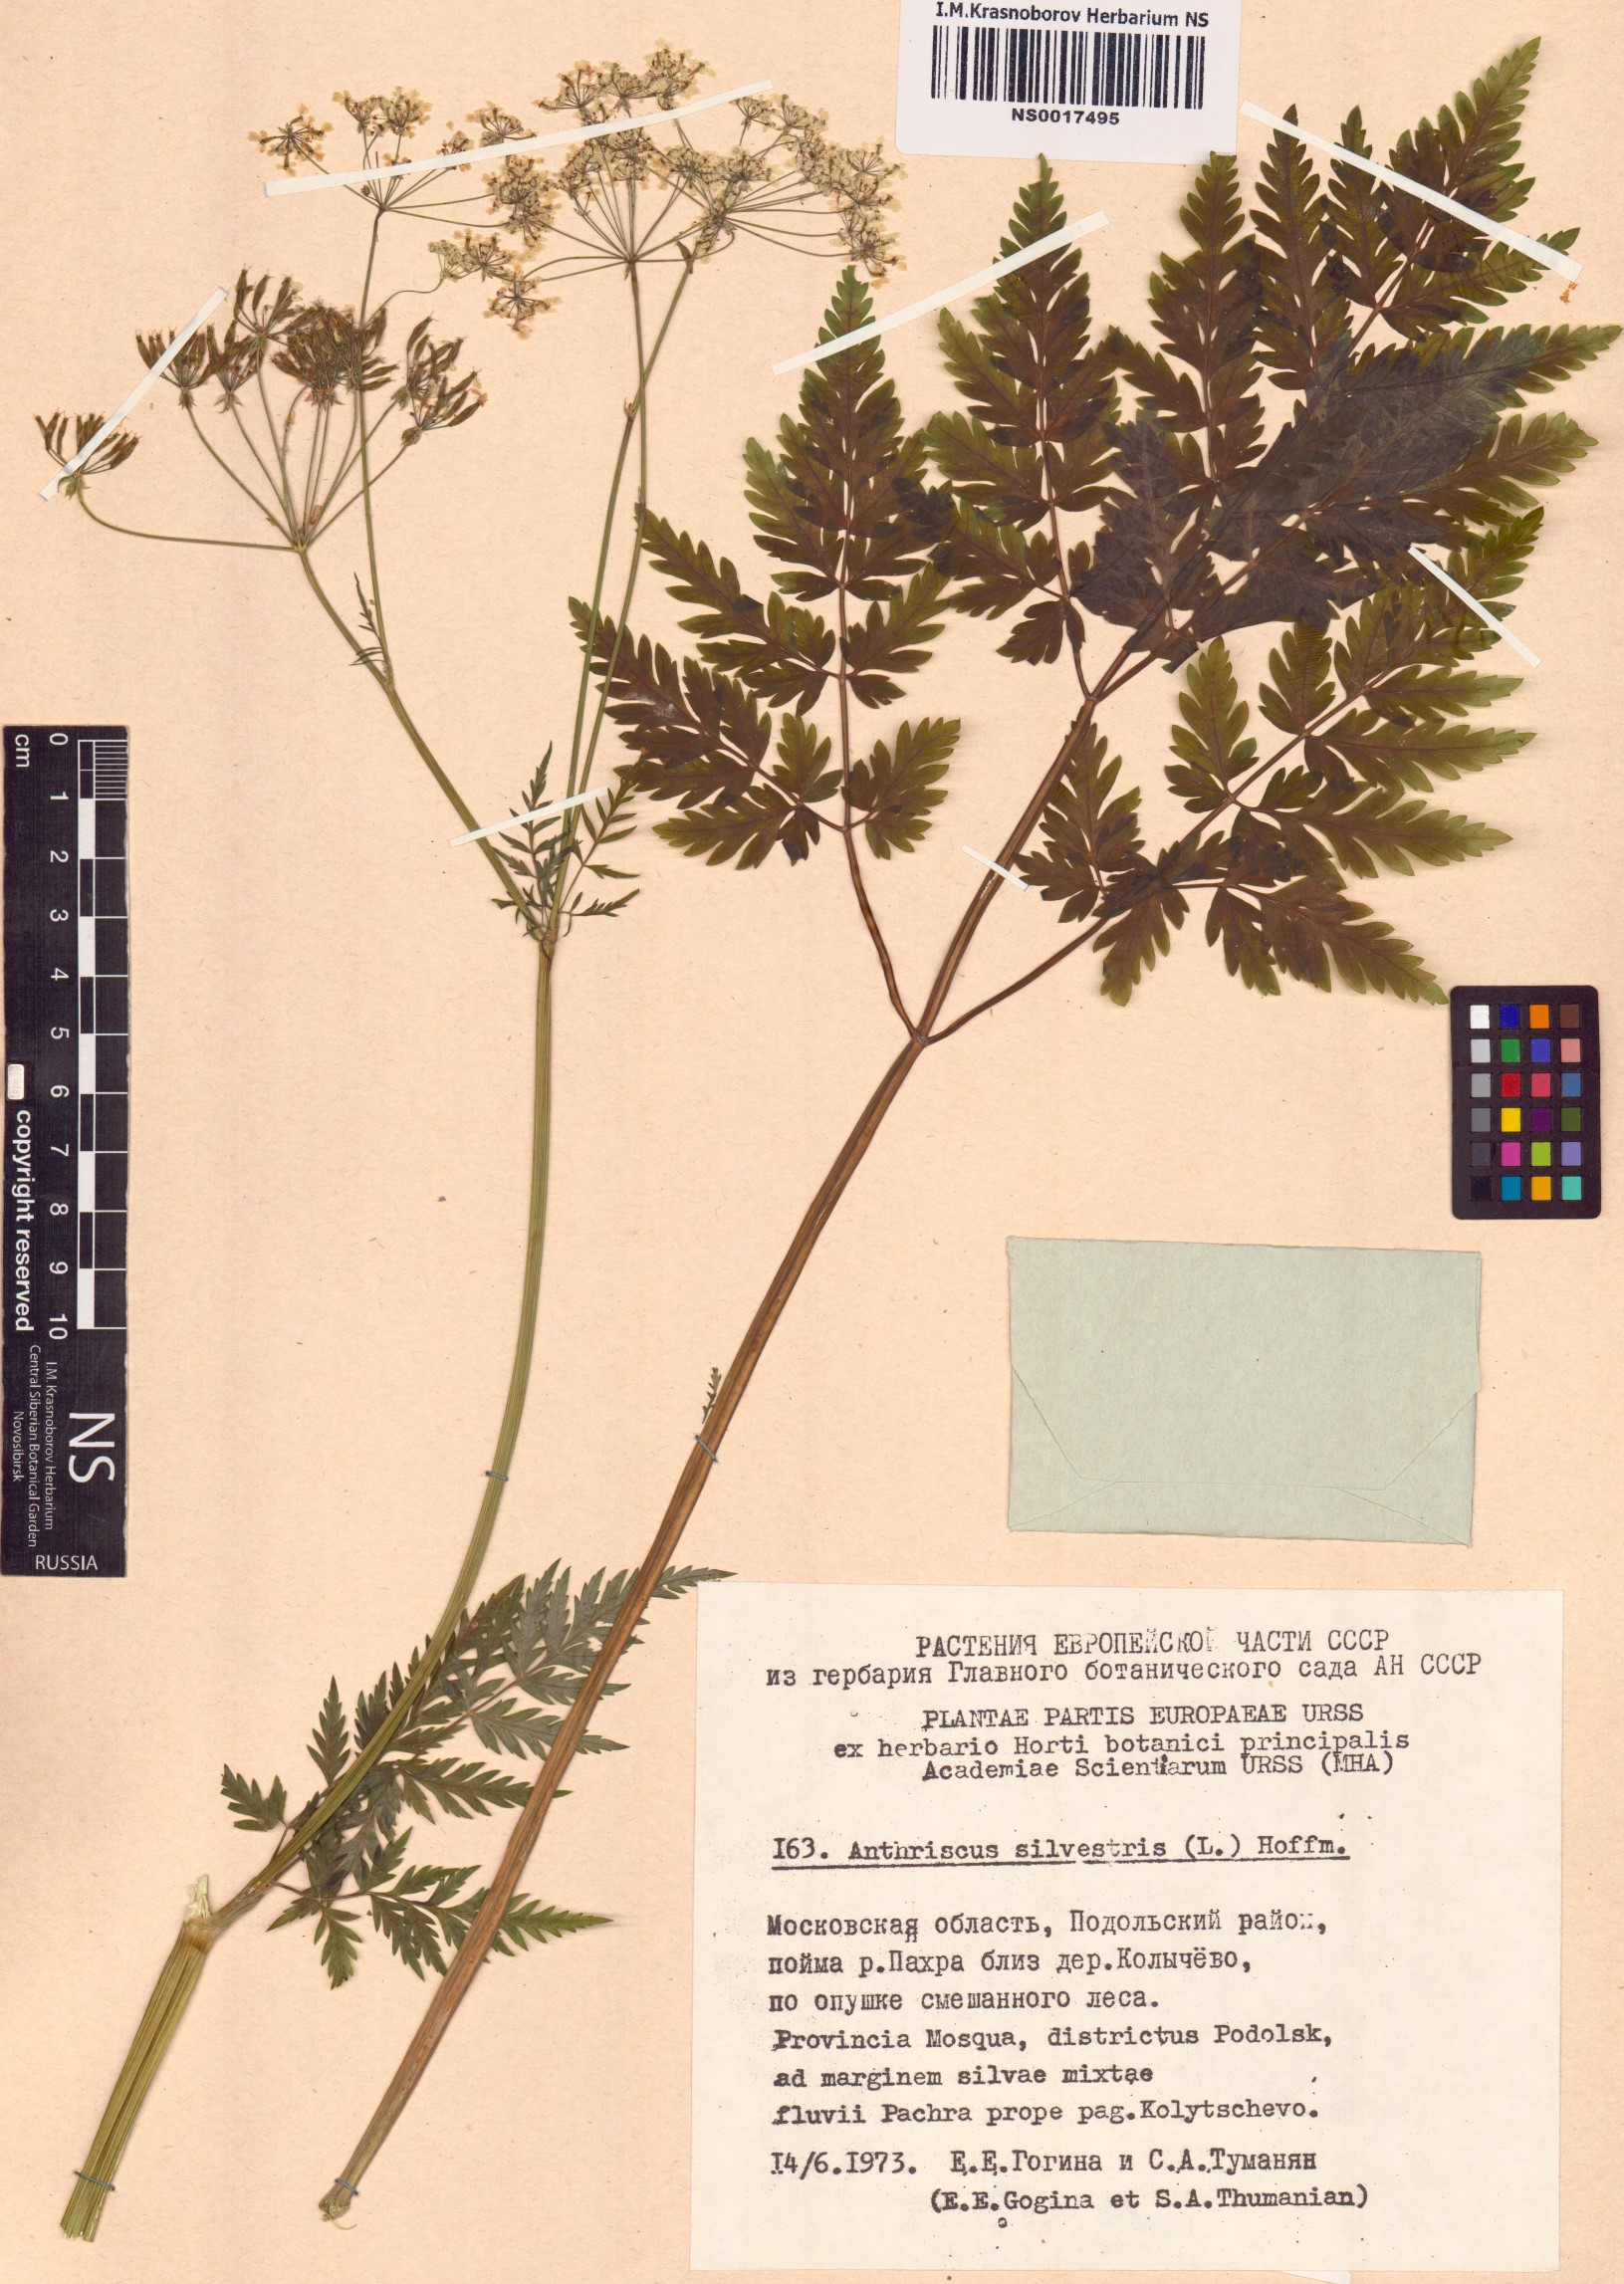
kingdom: Plantae
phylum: Tracheophyta
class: Magnoliopsida
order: Apiales
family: Apiaceae
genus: Anthriscus
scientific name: Anthriscus sylvestris
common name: Cow parsley
